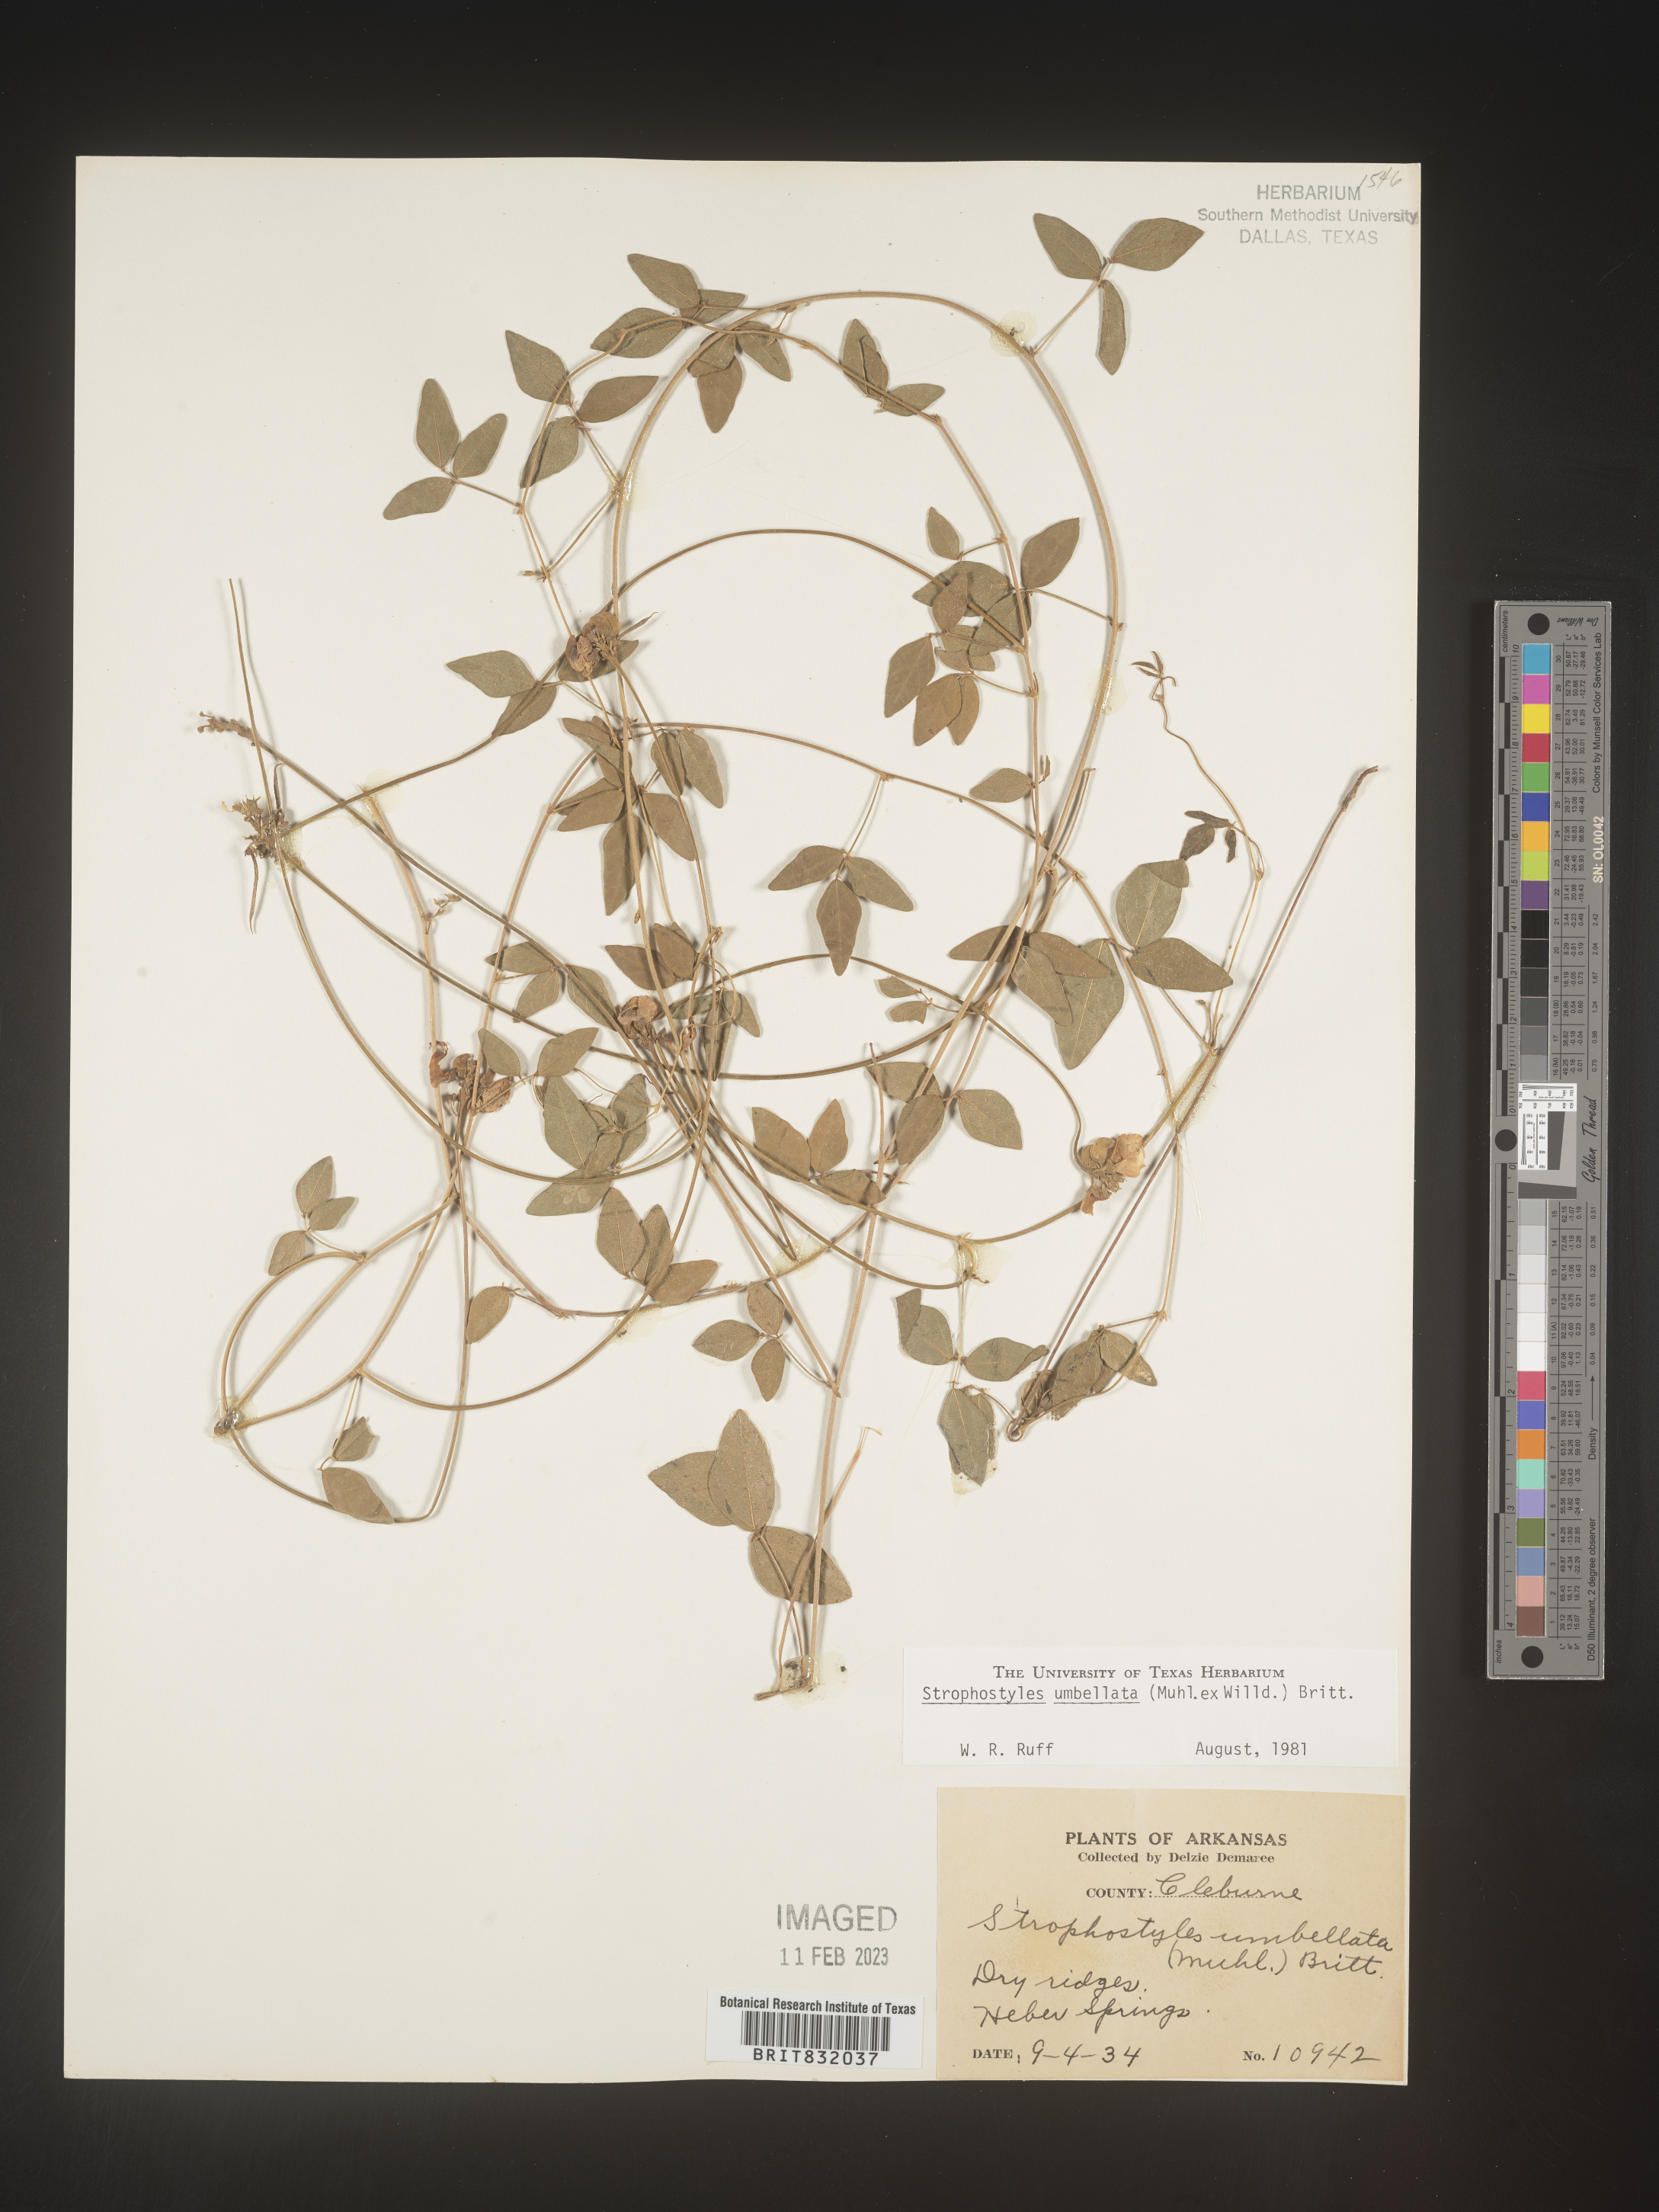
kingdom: Plantae
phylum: Tracheophyta
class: Magnoliopsida
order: Fabales
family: Fabaceae
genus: Strophostyles
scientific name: Strophostyles umbellata
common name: Perennial wild bean
